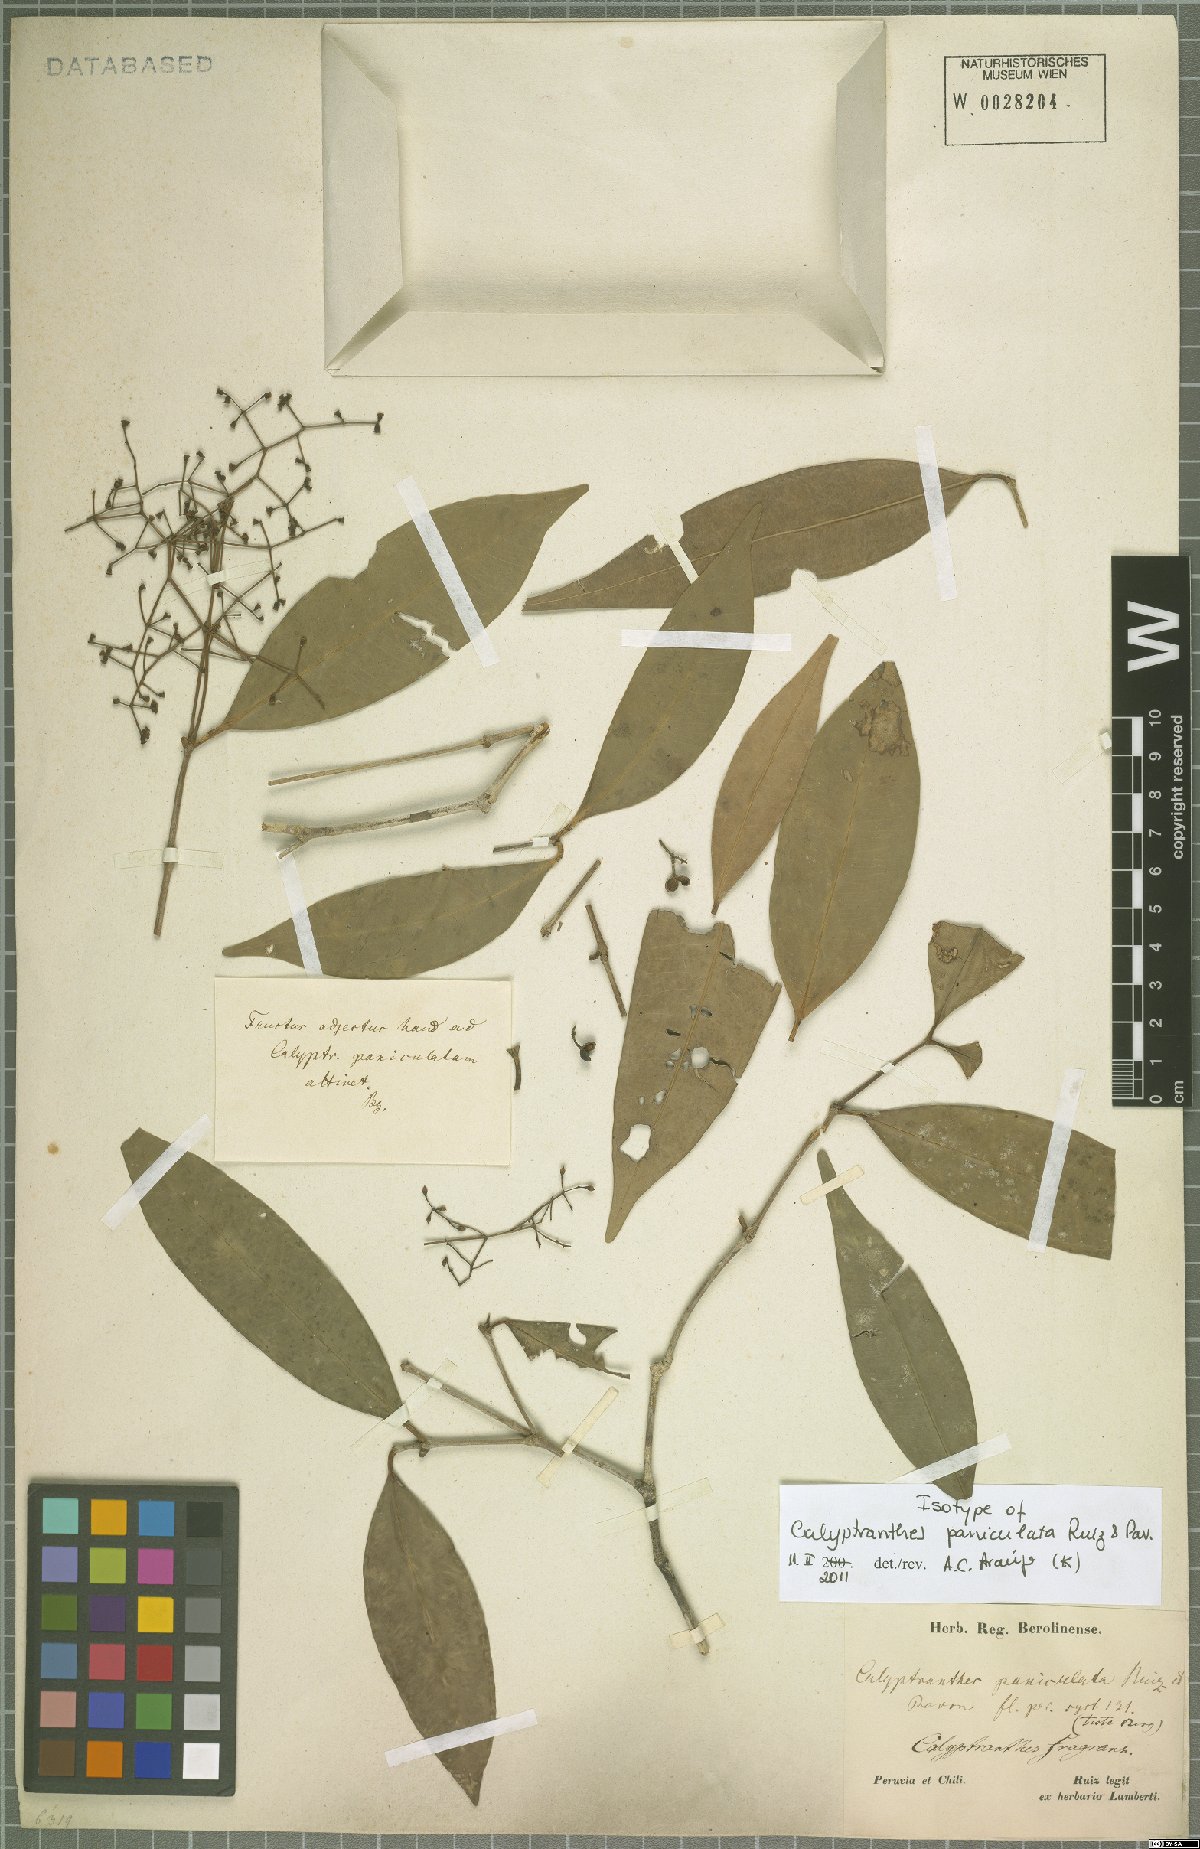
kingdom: Plantae
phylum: Tracheophyta
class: Magnoliopsida
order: Myrtales
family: Myrtaceae
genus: Myrcia
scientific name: Myrcia megapaniculata
